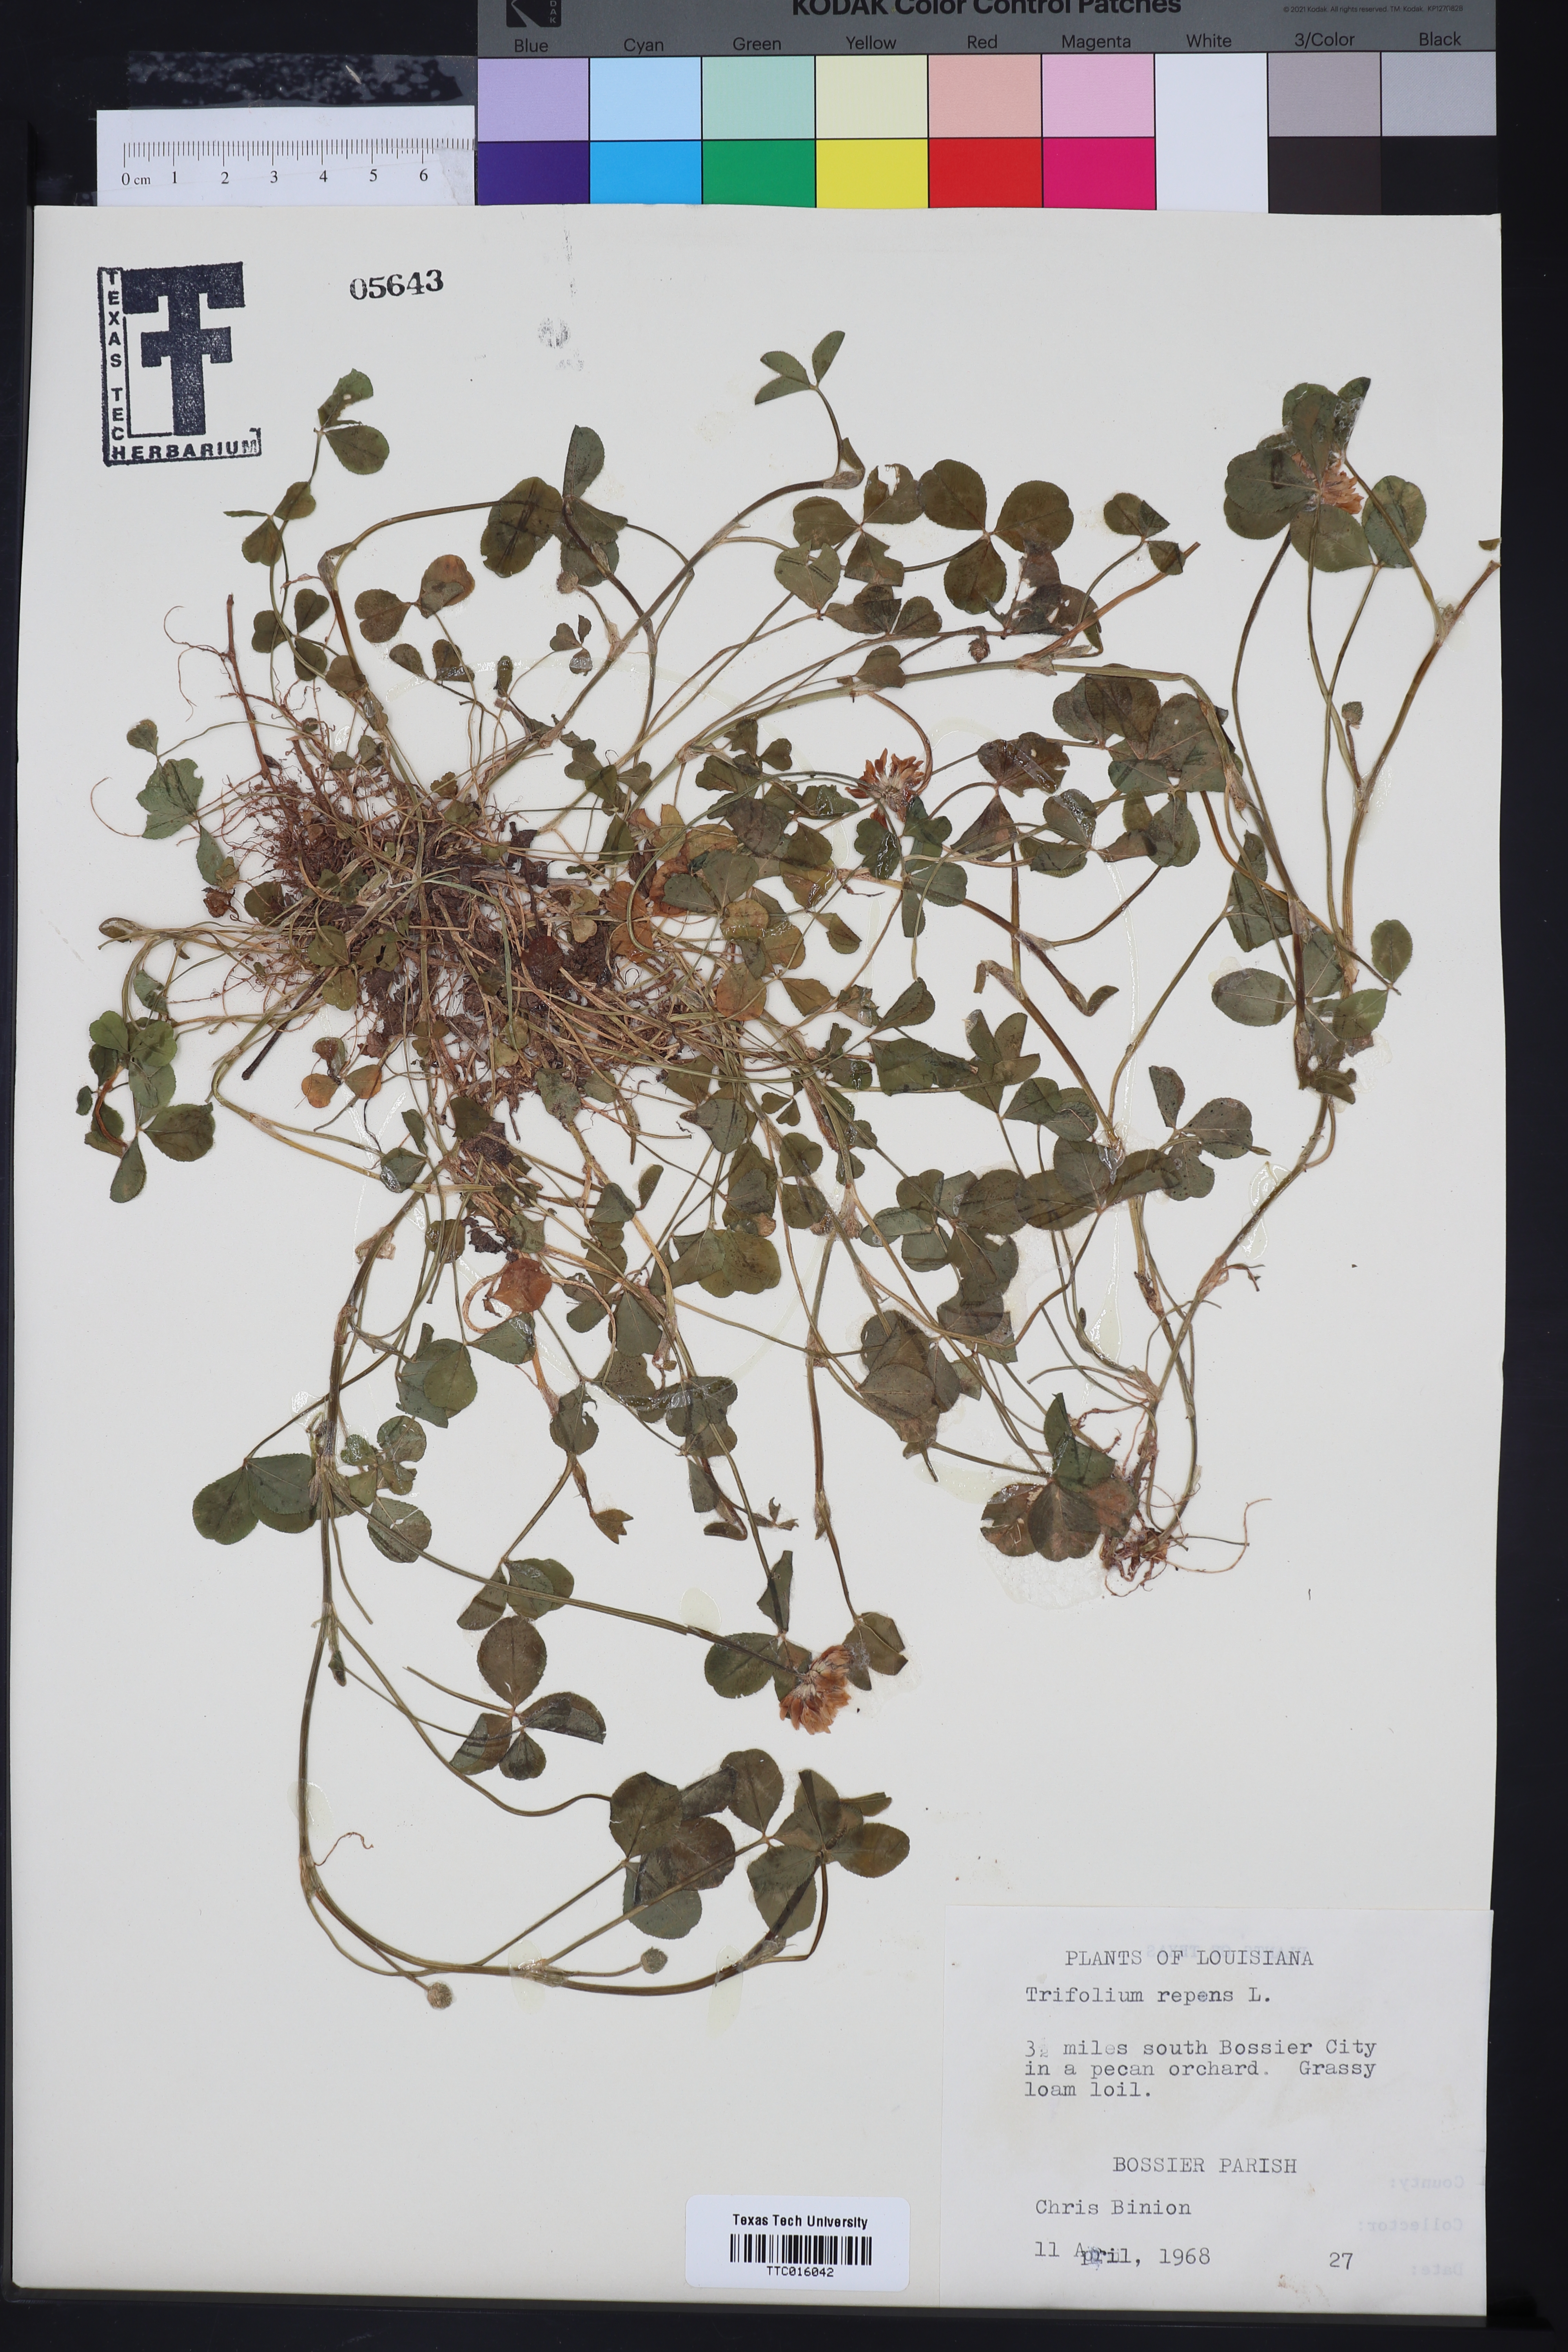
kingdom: Plantae
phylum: Tracheophyta
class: Magnoliopsida
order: Fabales
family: Fabaceae
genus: Trifolium
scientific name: Trifolium repens
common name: White clover
